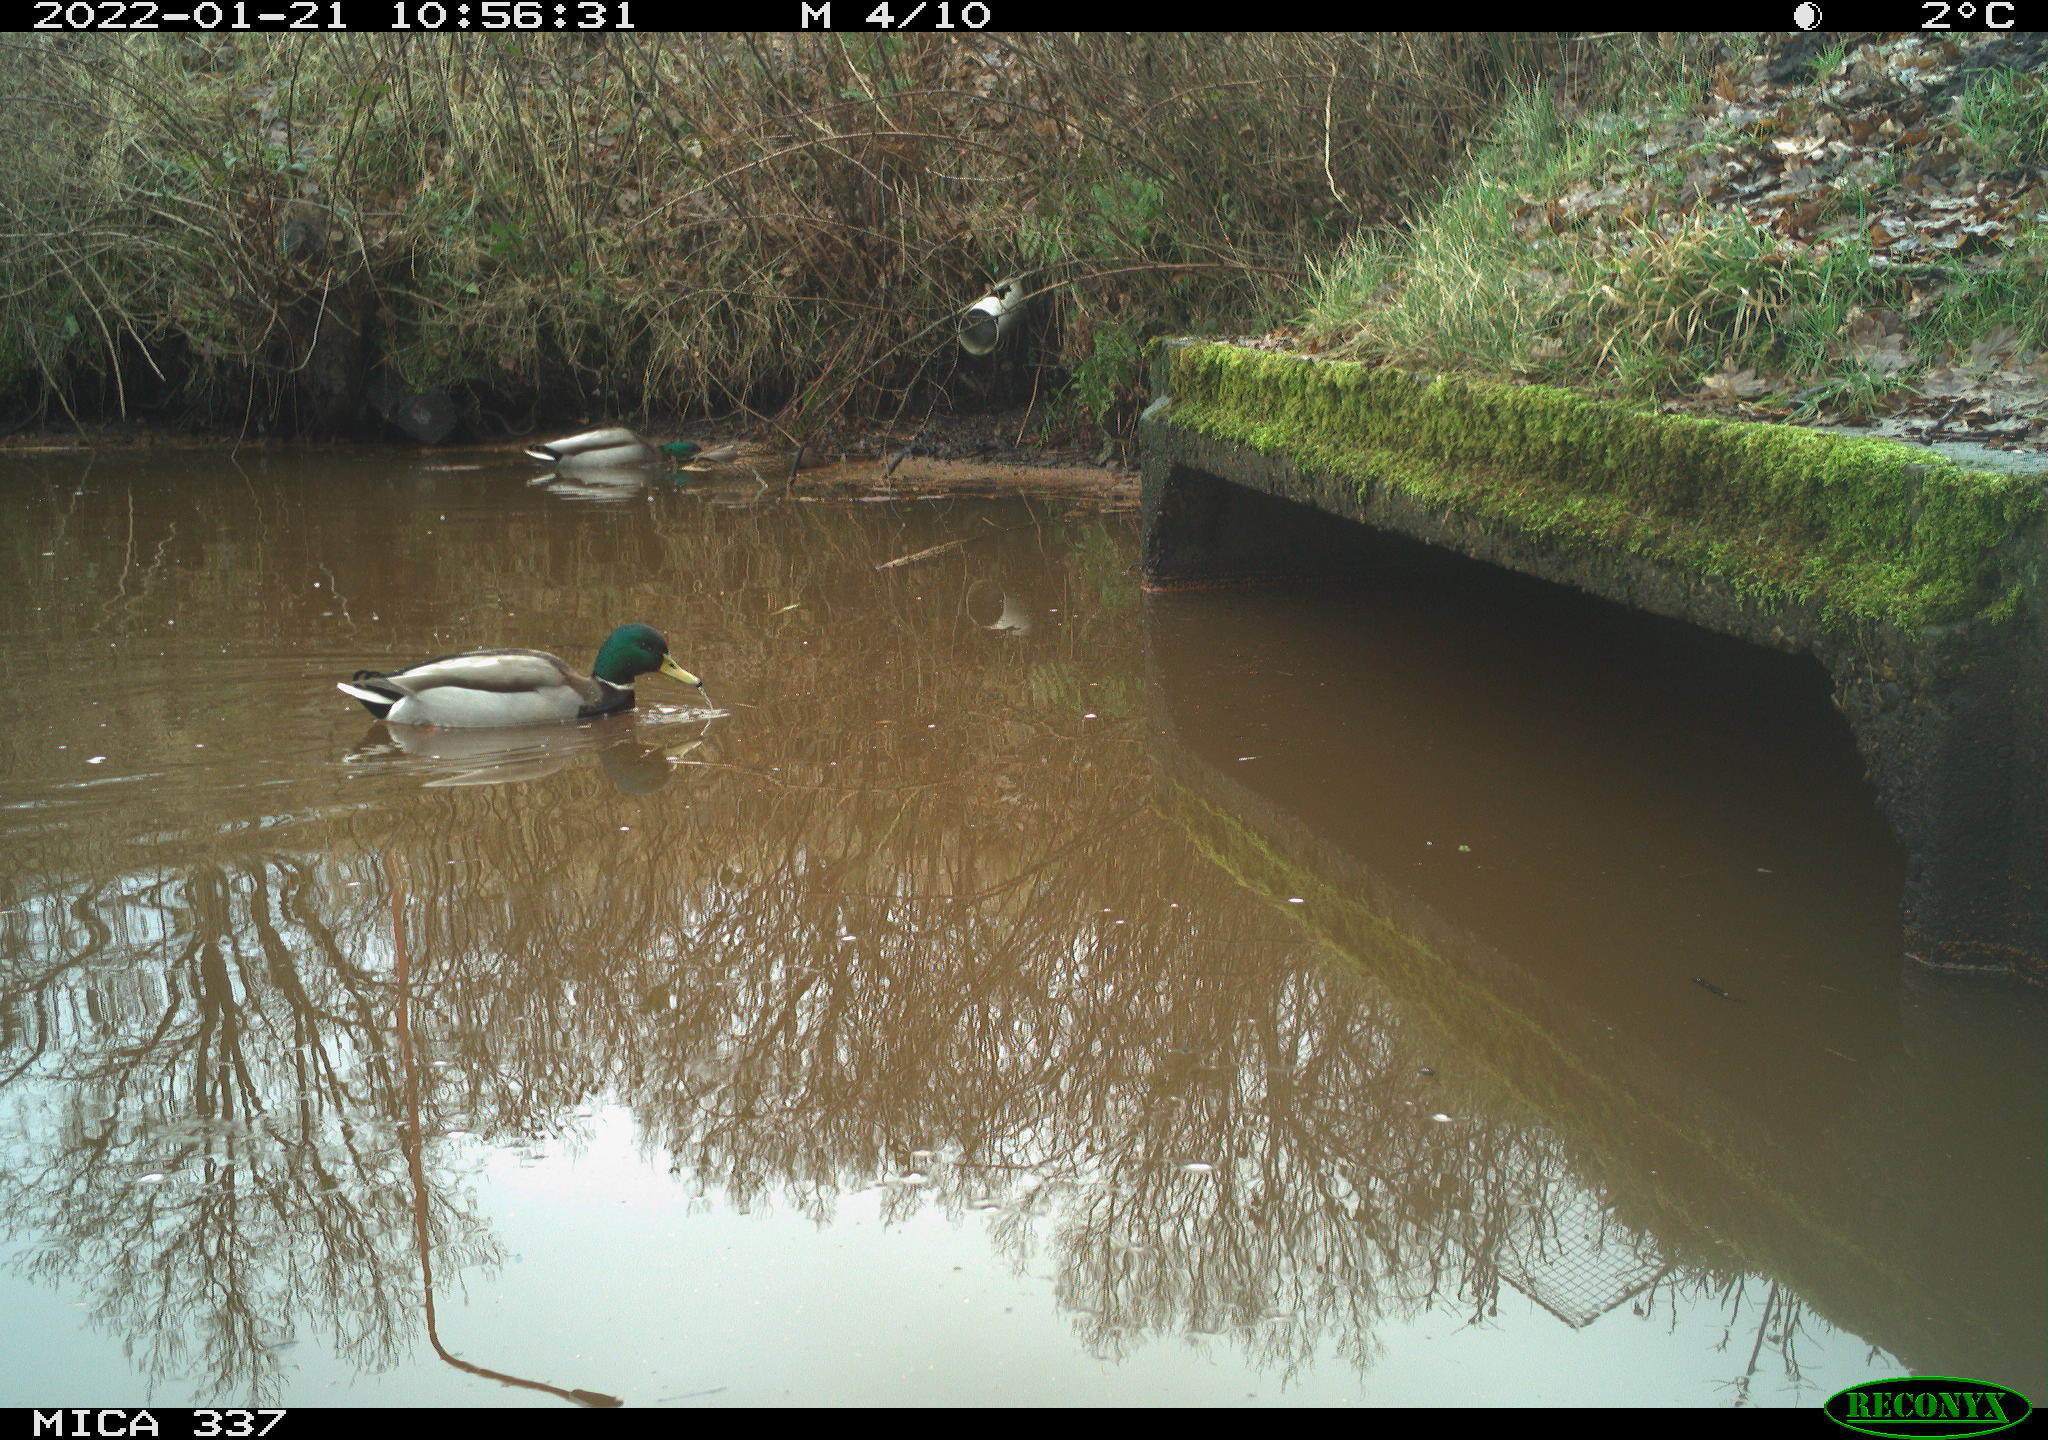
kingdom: Animalia
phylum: Chordata
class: Aves
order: Anseriformes
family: Anatidae
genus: Anas
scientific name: Anas platyrhynchos
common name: Mallard
